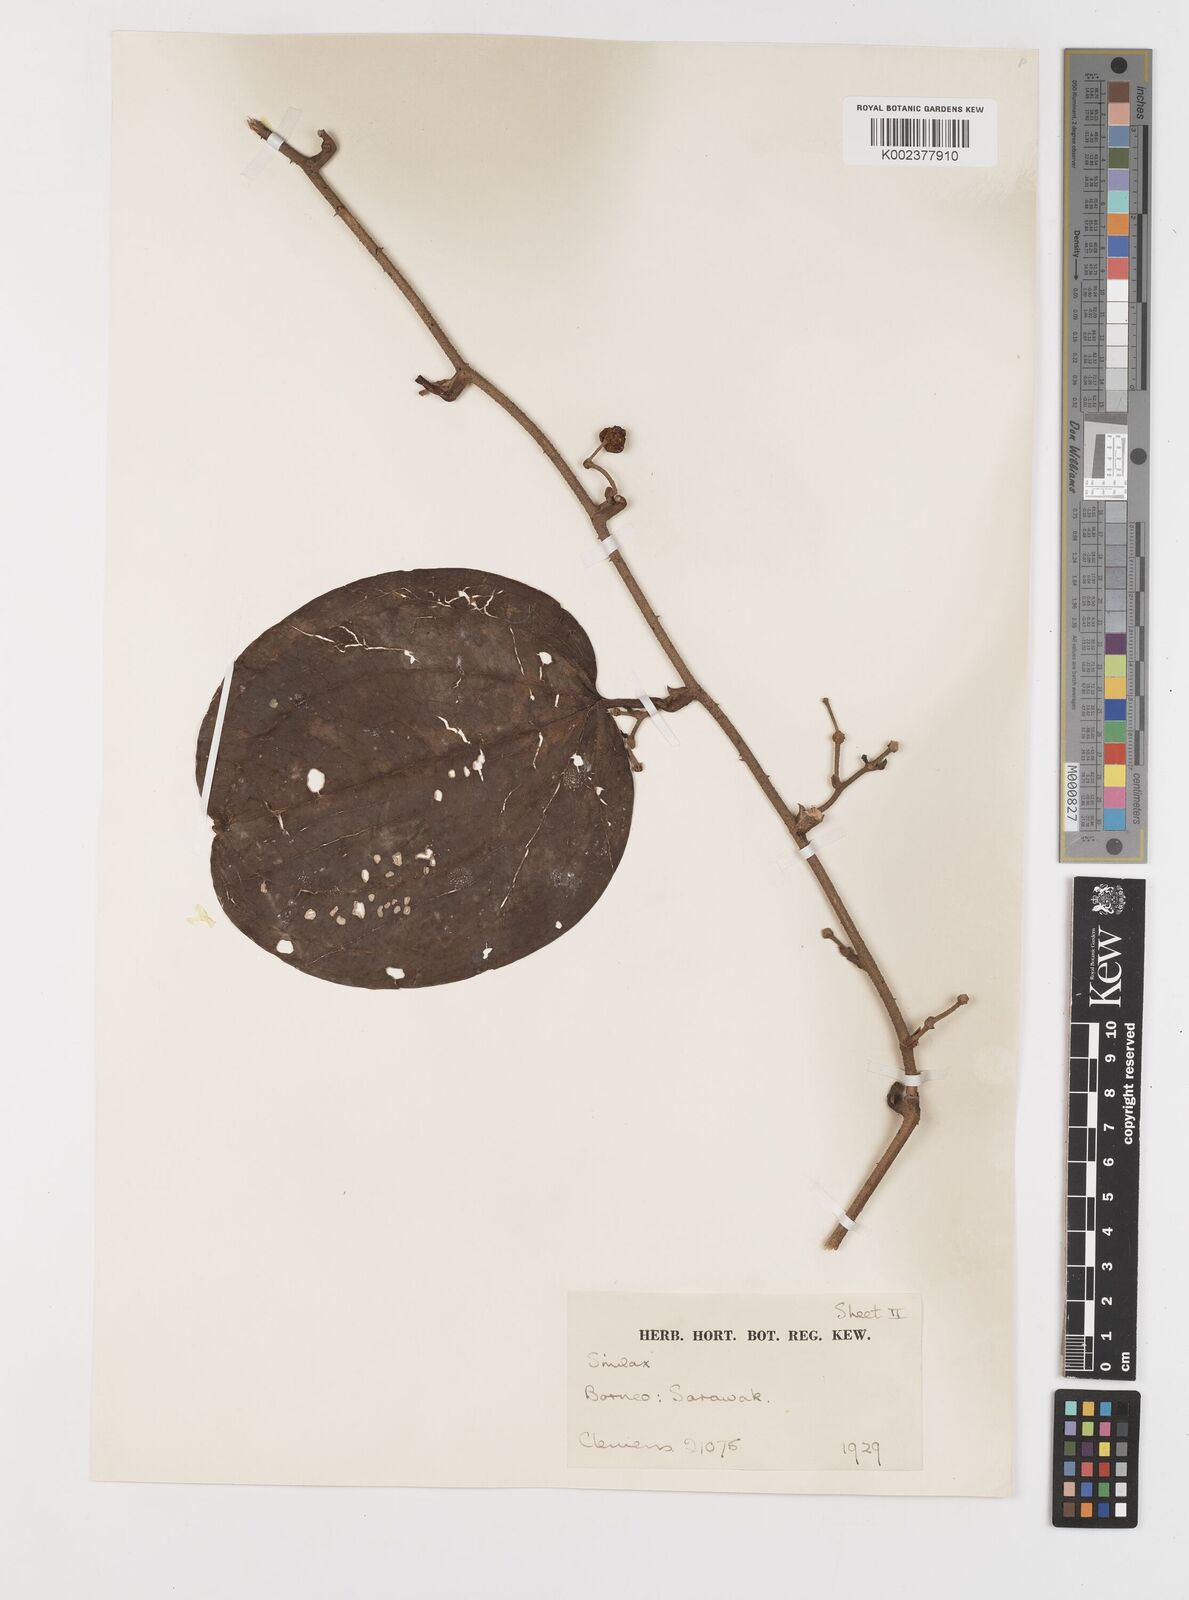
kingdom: Plantae
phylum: Tracheophyta
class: Liliopsida
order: Liliales
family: Smilacaceae
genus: Smilax
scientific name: Smilax
